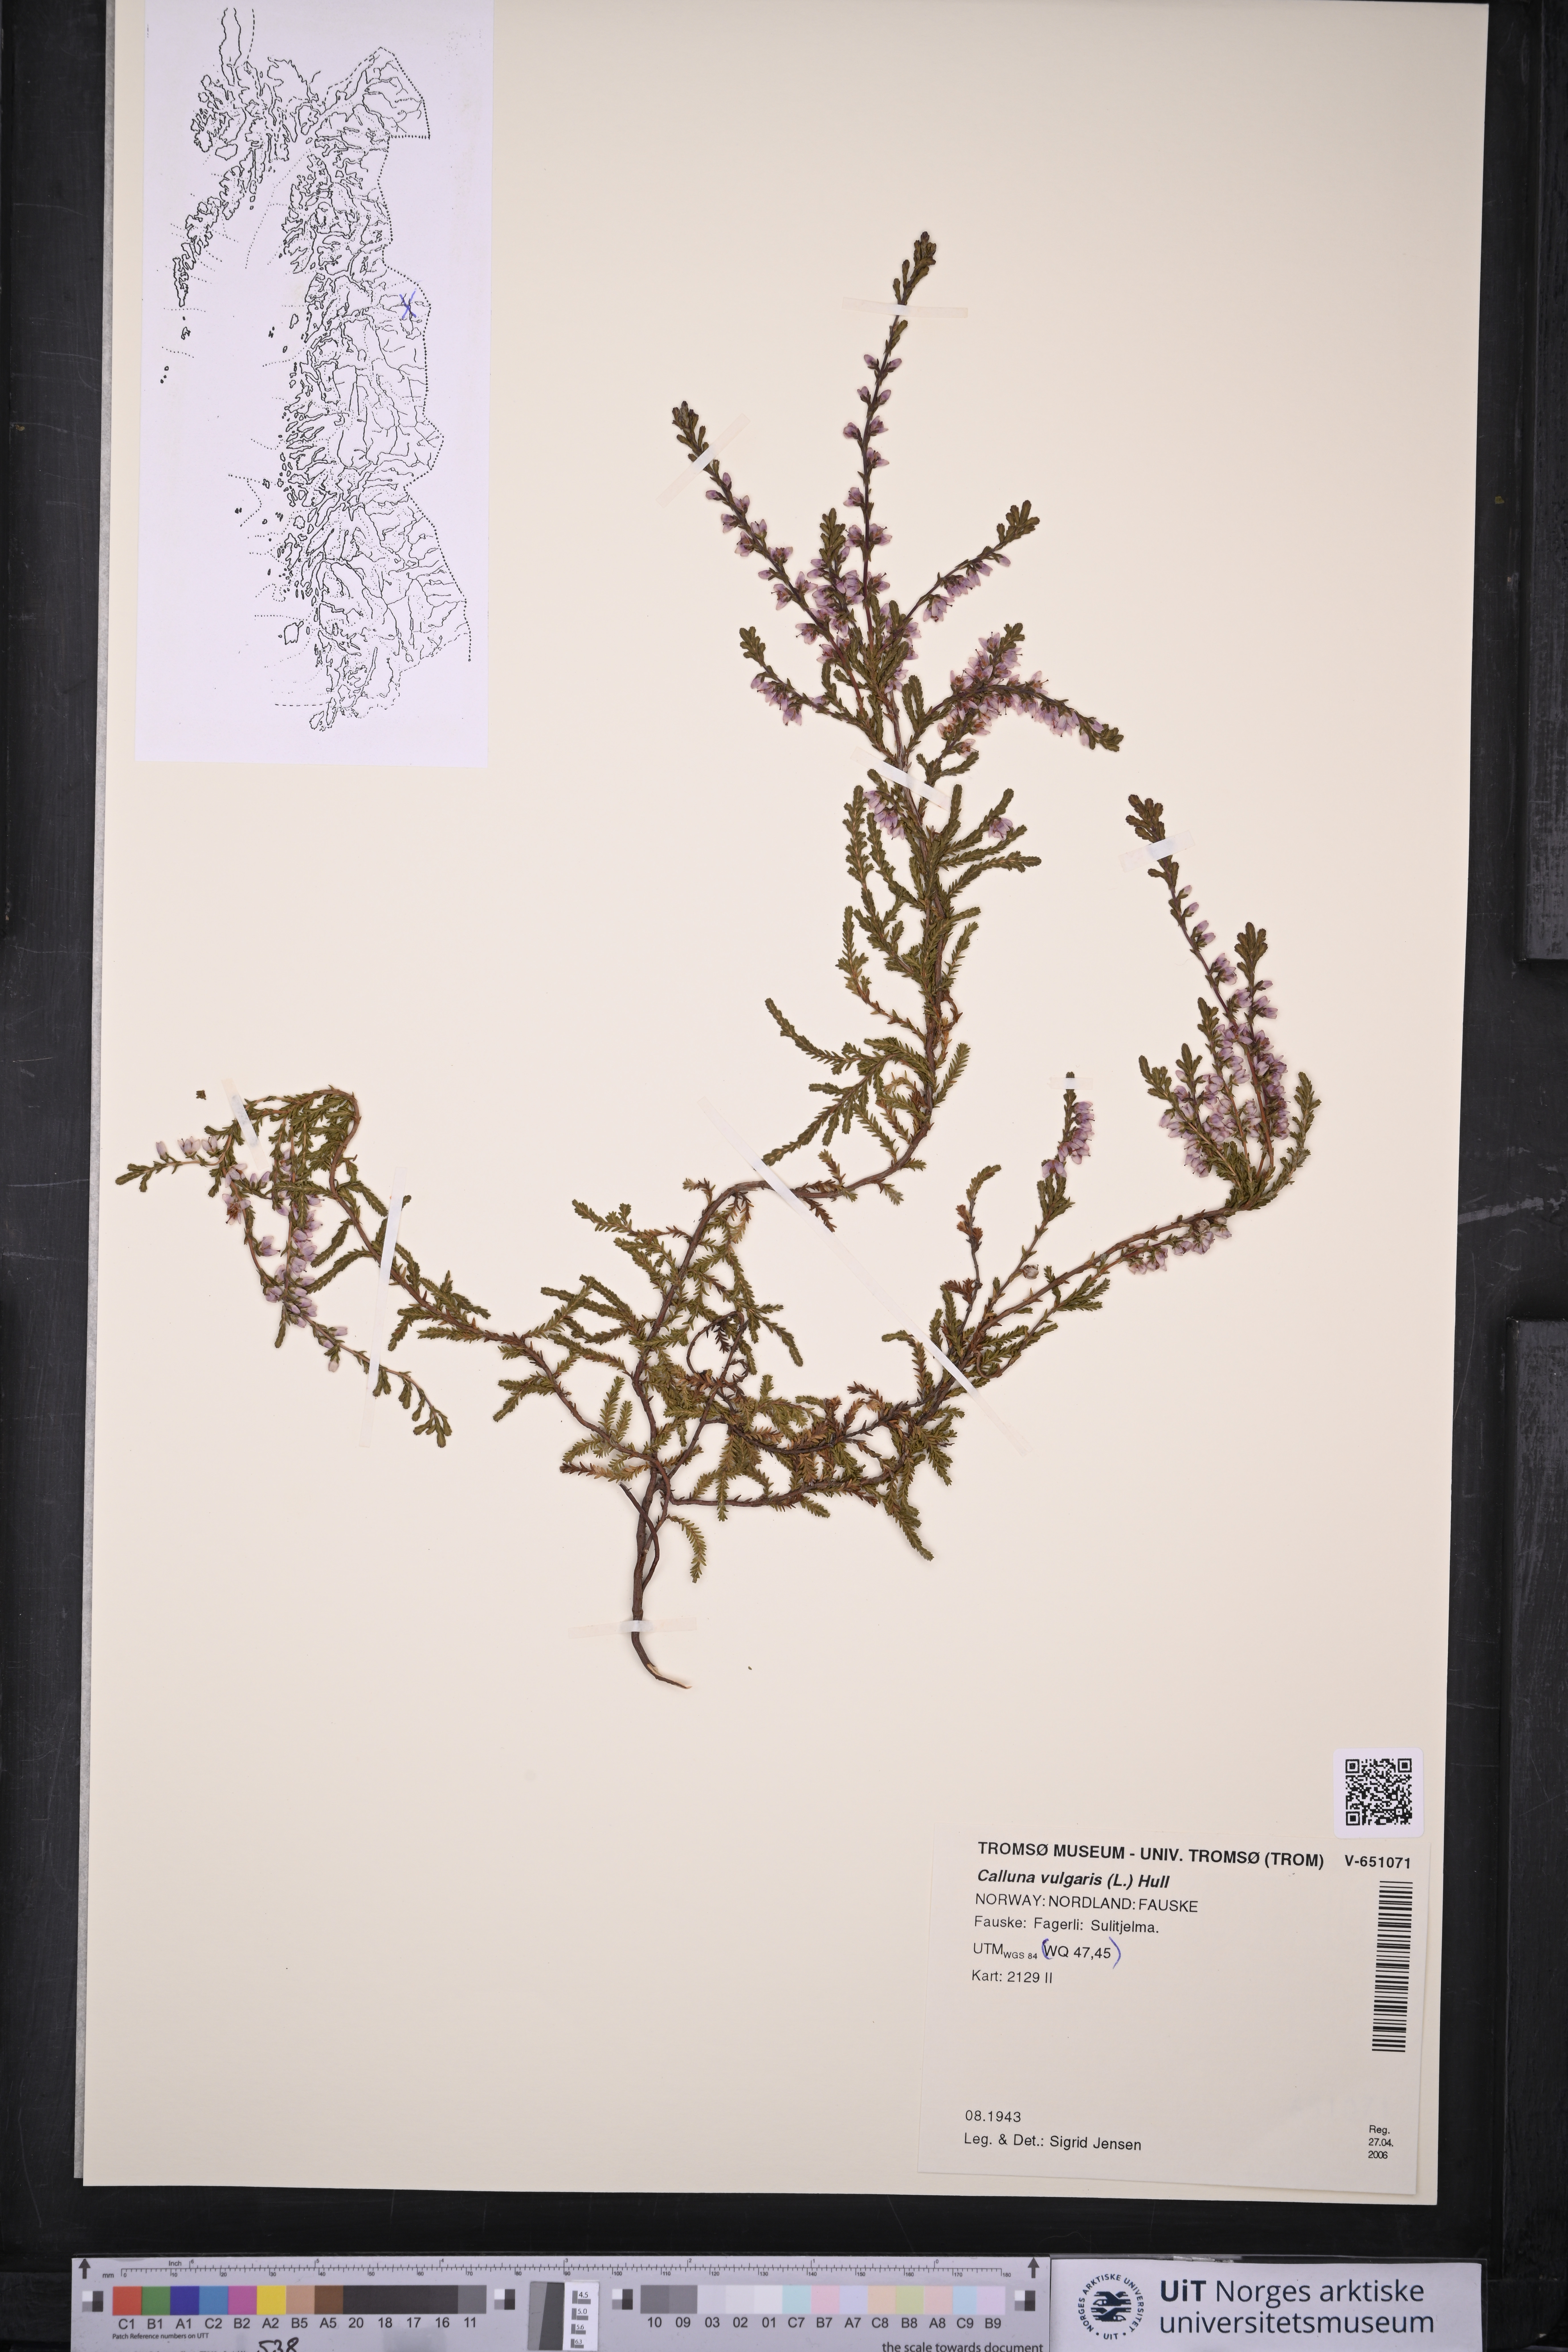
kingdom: Plantae
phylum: Tracheophyta
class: Magnoliopsida
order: Ericales
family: Ericaceae
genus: Calluna
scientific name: Calluna vulgaris
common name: Heather
